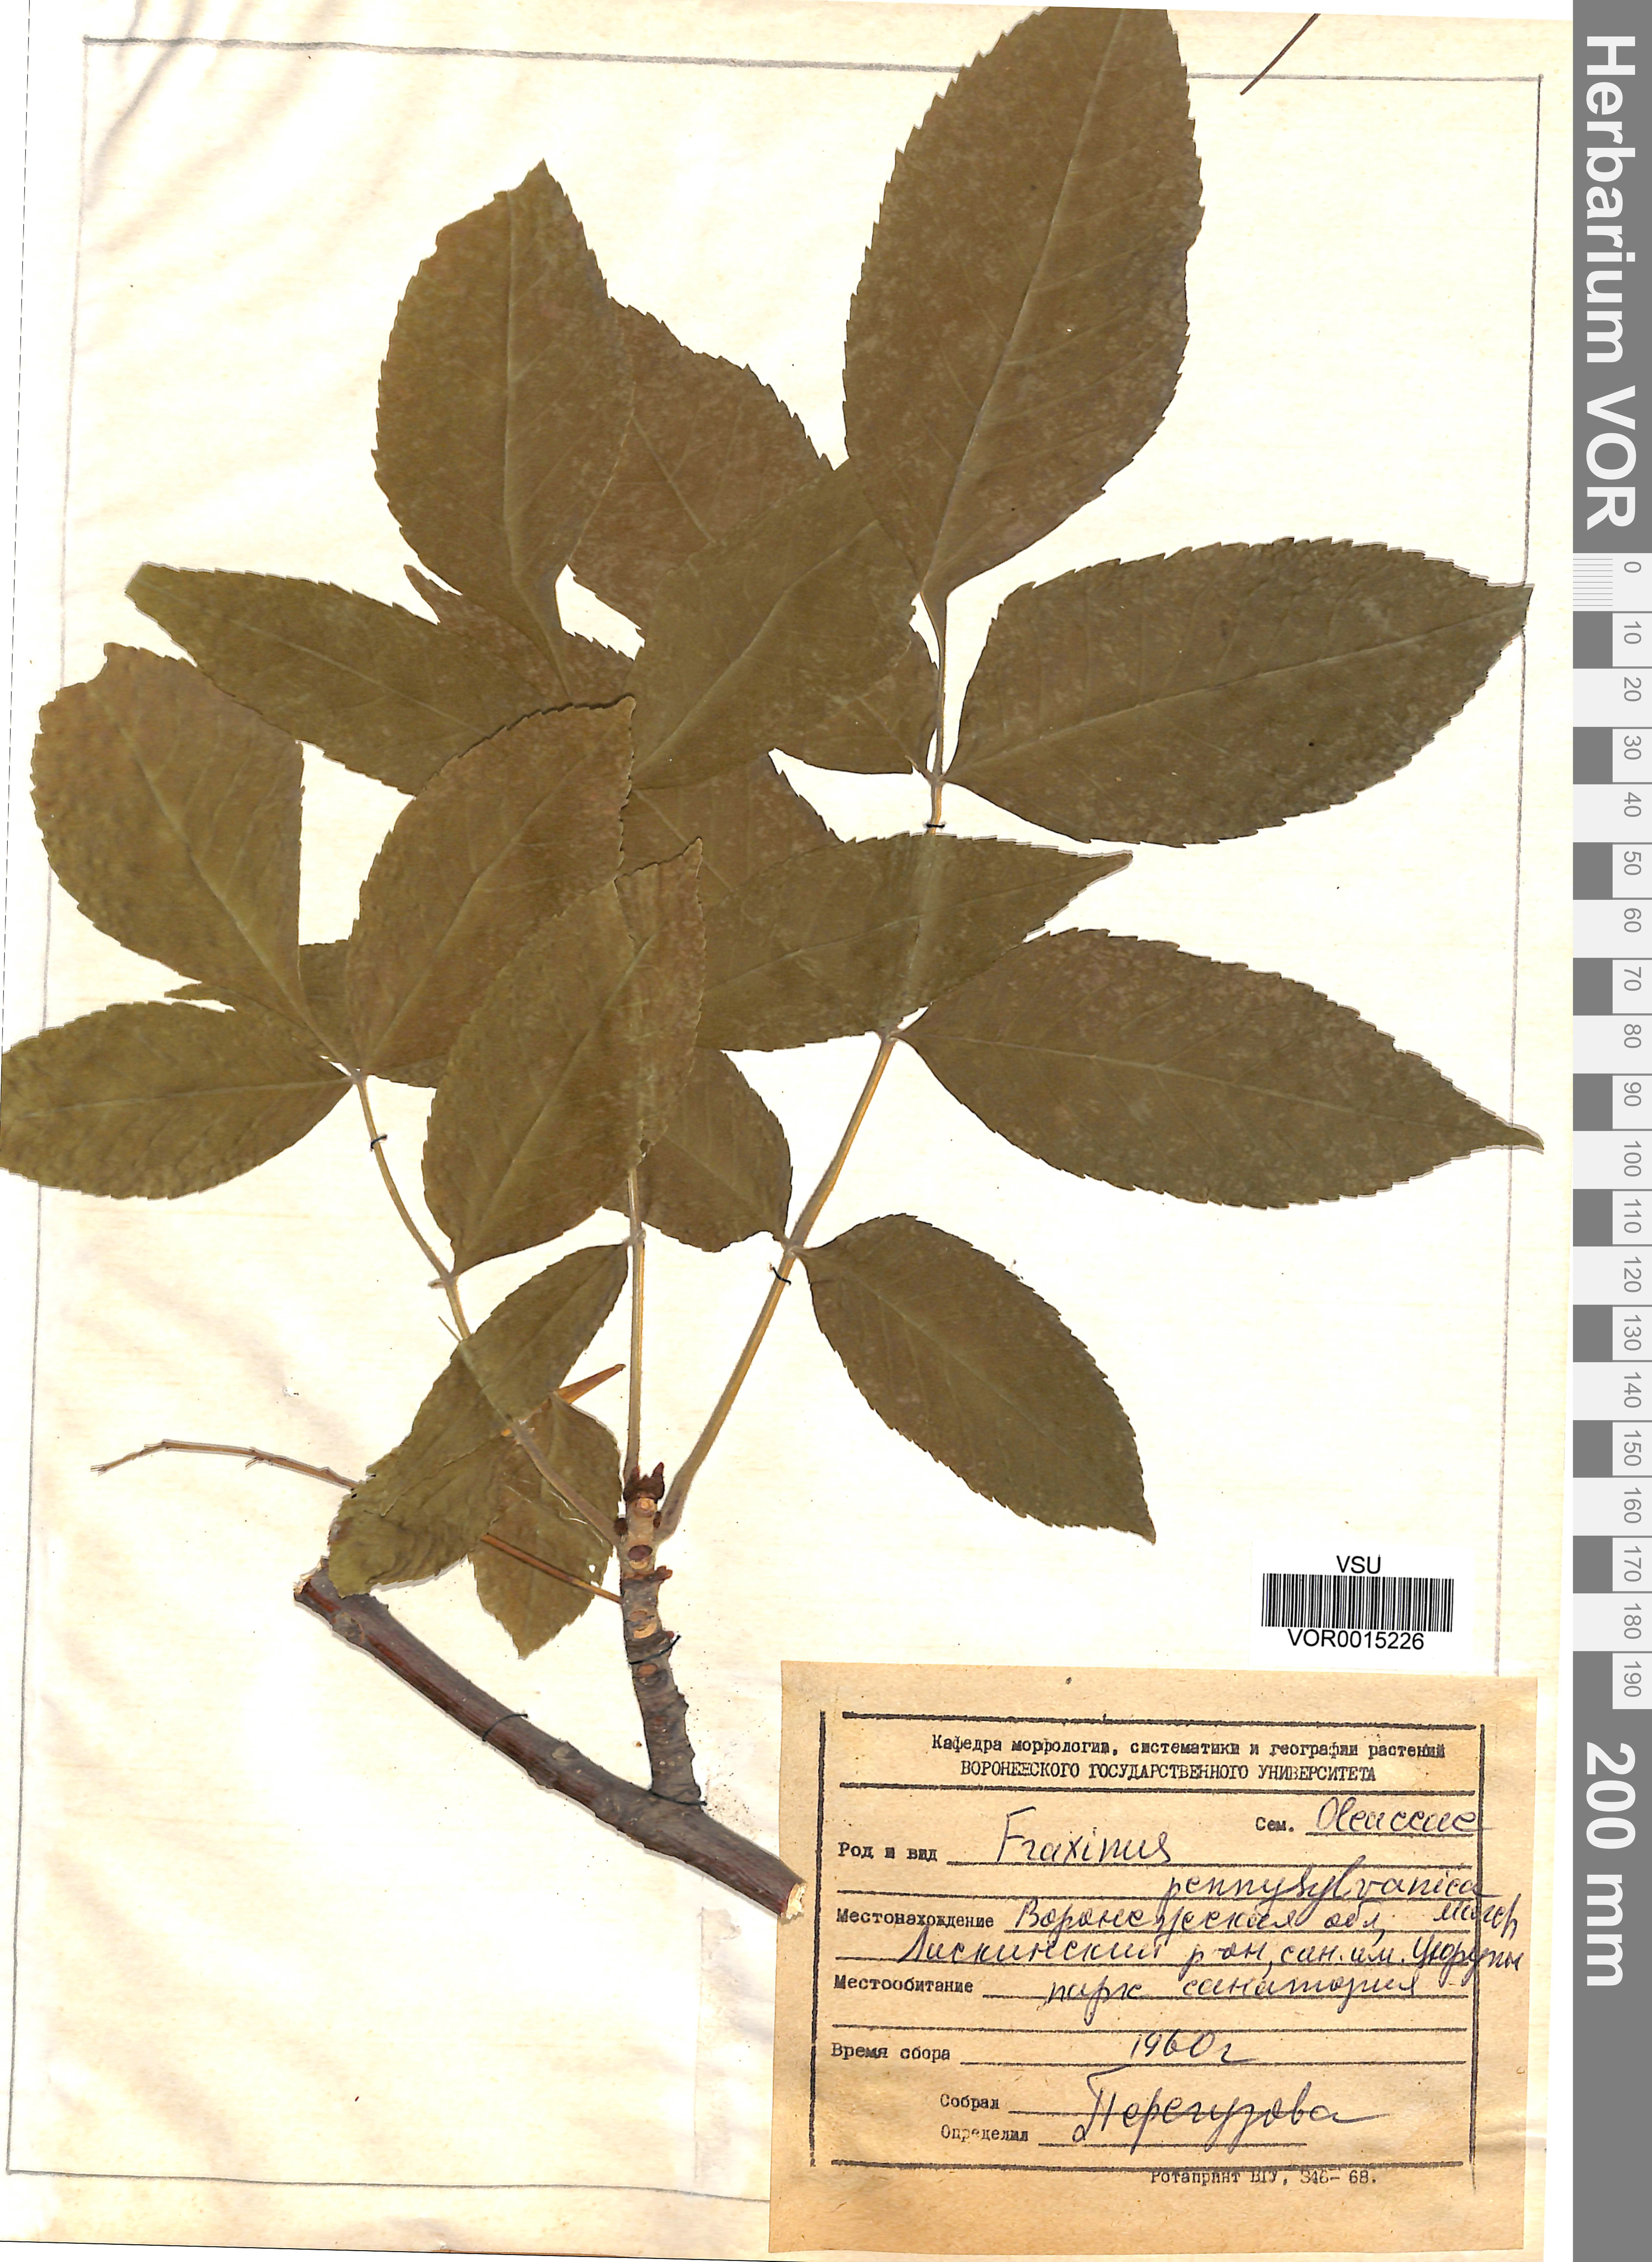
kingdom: Plantae
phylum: Tracheophyta
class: Magnoliopsida
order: Lamiales
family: Oleaceae
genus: Fraxinus
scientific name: Fraxinus pennsylvanica
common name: Green ash
